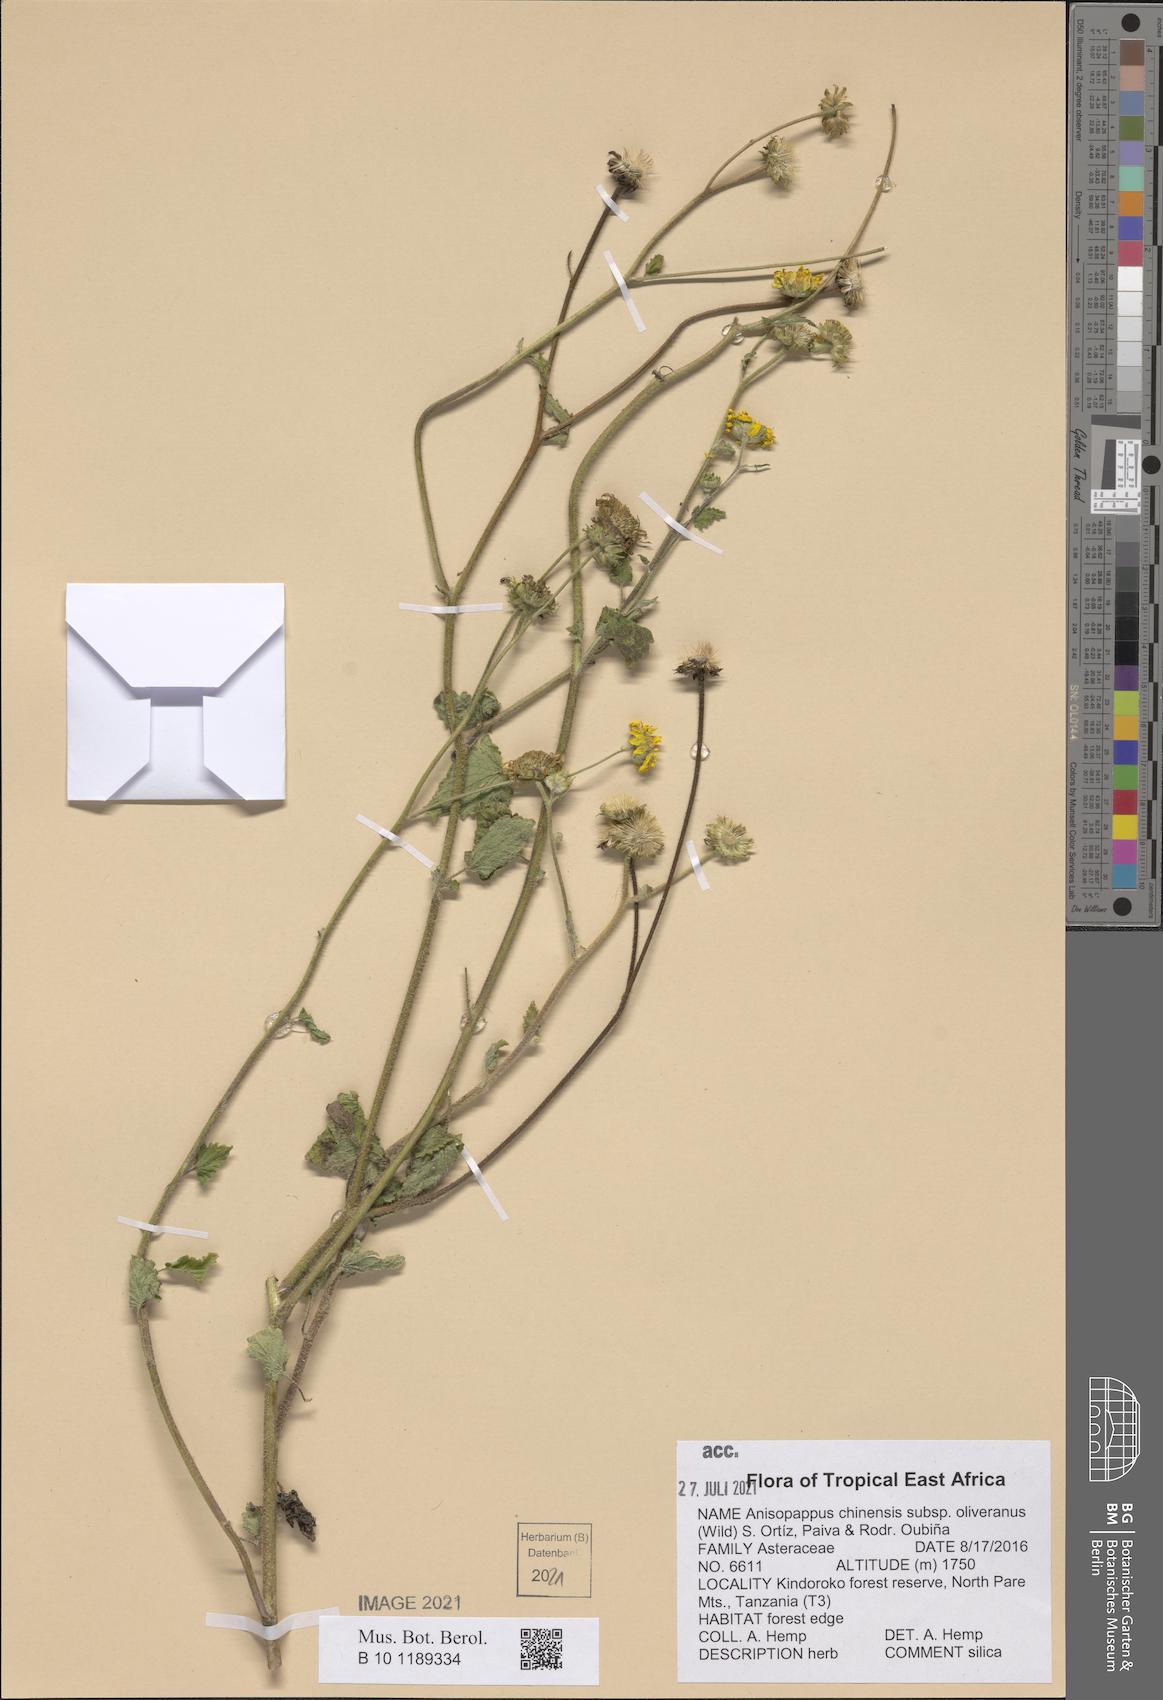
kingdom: Plantae
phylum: Tracheophyta
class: Magnoliopsida
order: Asterales
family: Asteraceae
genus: Anisopappus
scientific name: Anisopappus oliverianus
